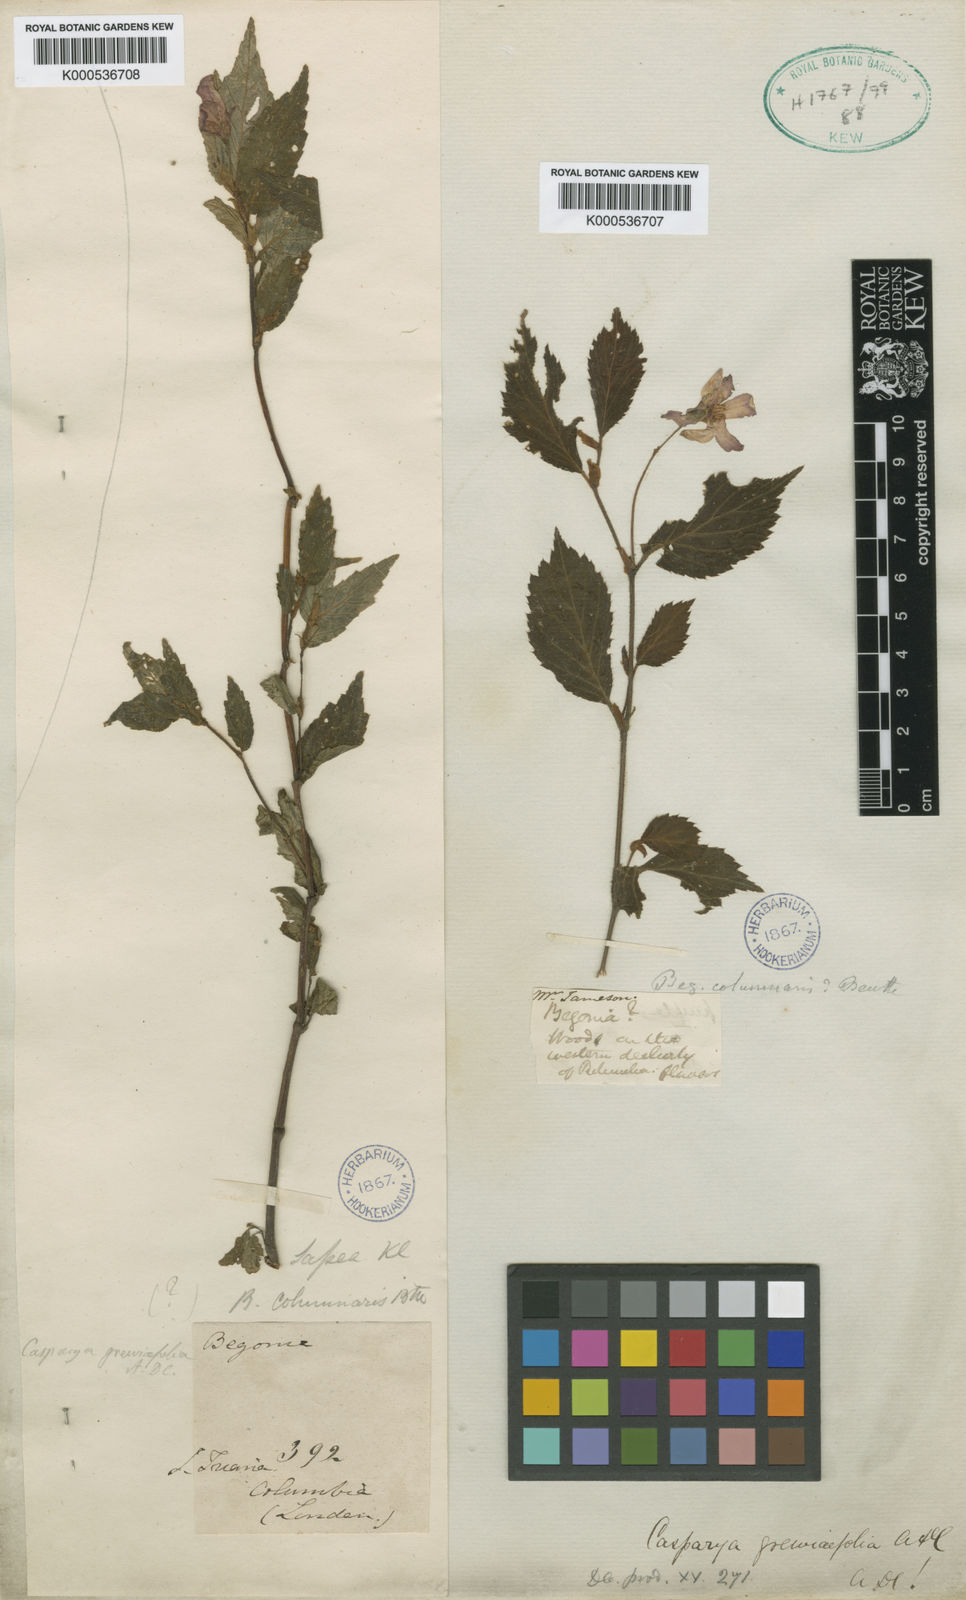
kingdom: Plantae
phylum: Tracheophyta
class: Magnoliopsida
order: Cucurbitales
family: Begoniaceae
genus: Begonia
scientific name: Begonia longirostris
